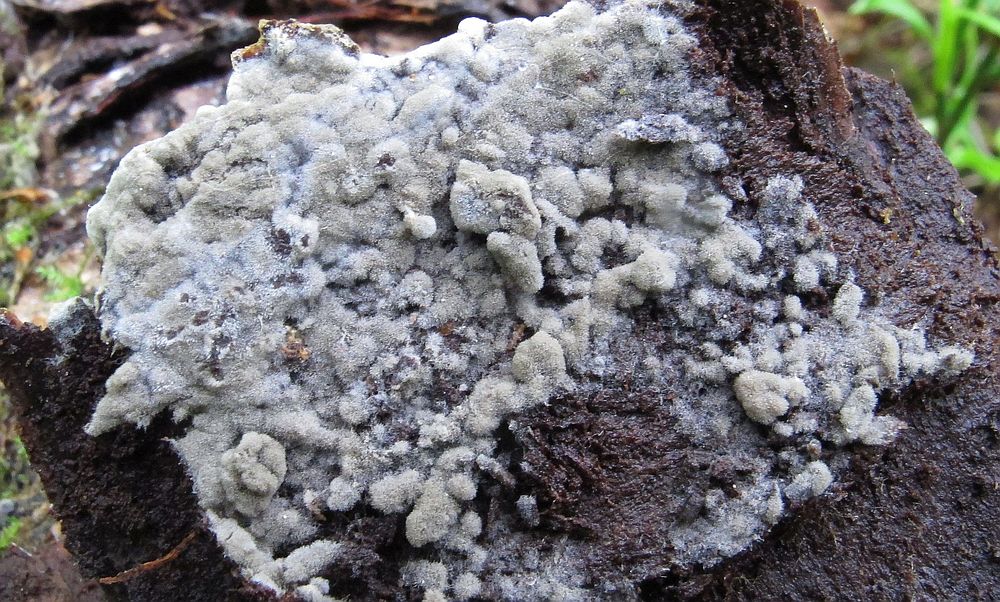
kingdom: Fungi
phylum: Basidiomycota
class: Agaricomycetes
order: Cantharellales
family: Botryobasidiaceae
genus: Botryobasidium
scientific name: Botryobasidium conspersum
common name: olivengrå spindhinde
